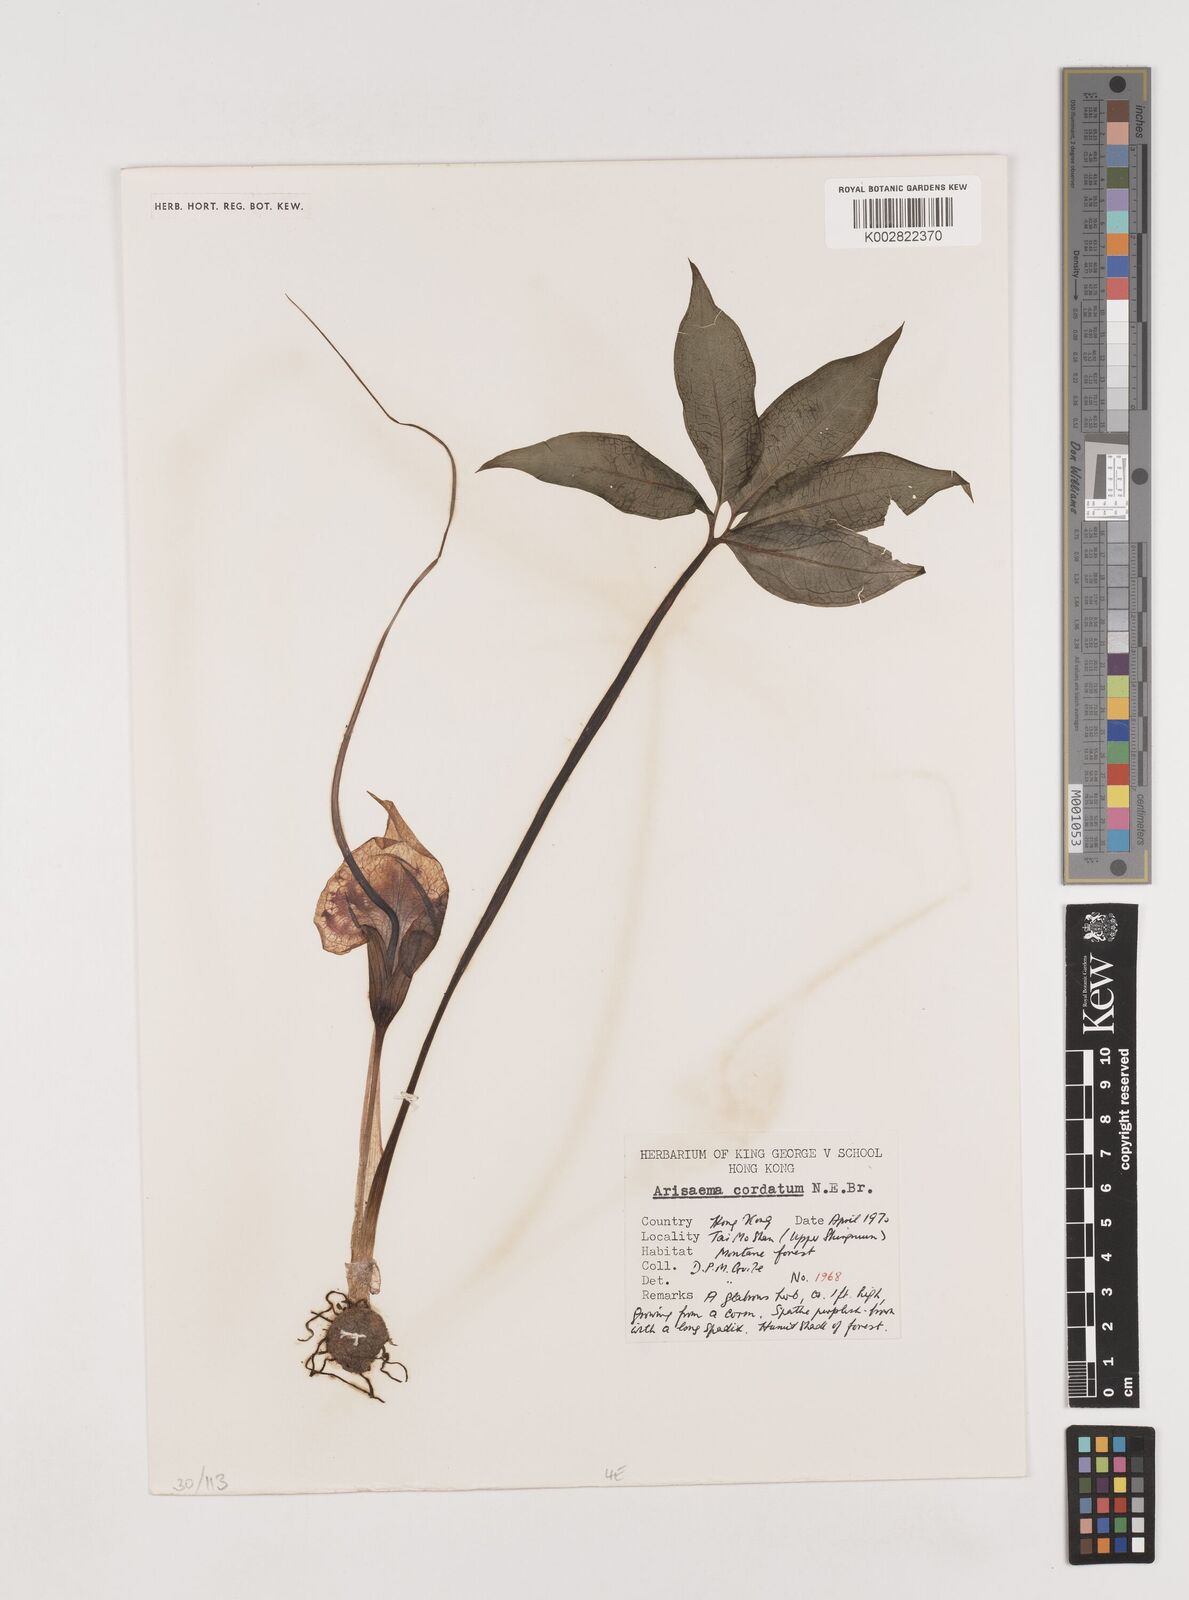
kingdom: Plantae
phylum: Tracheophyta
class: Liliopsida
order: Alismatales
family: Araceae
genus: Arisaema
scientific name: Arisaema cordatum
